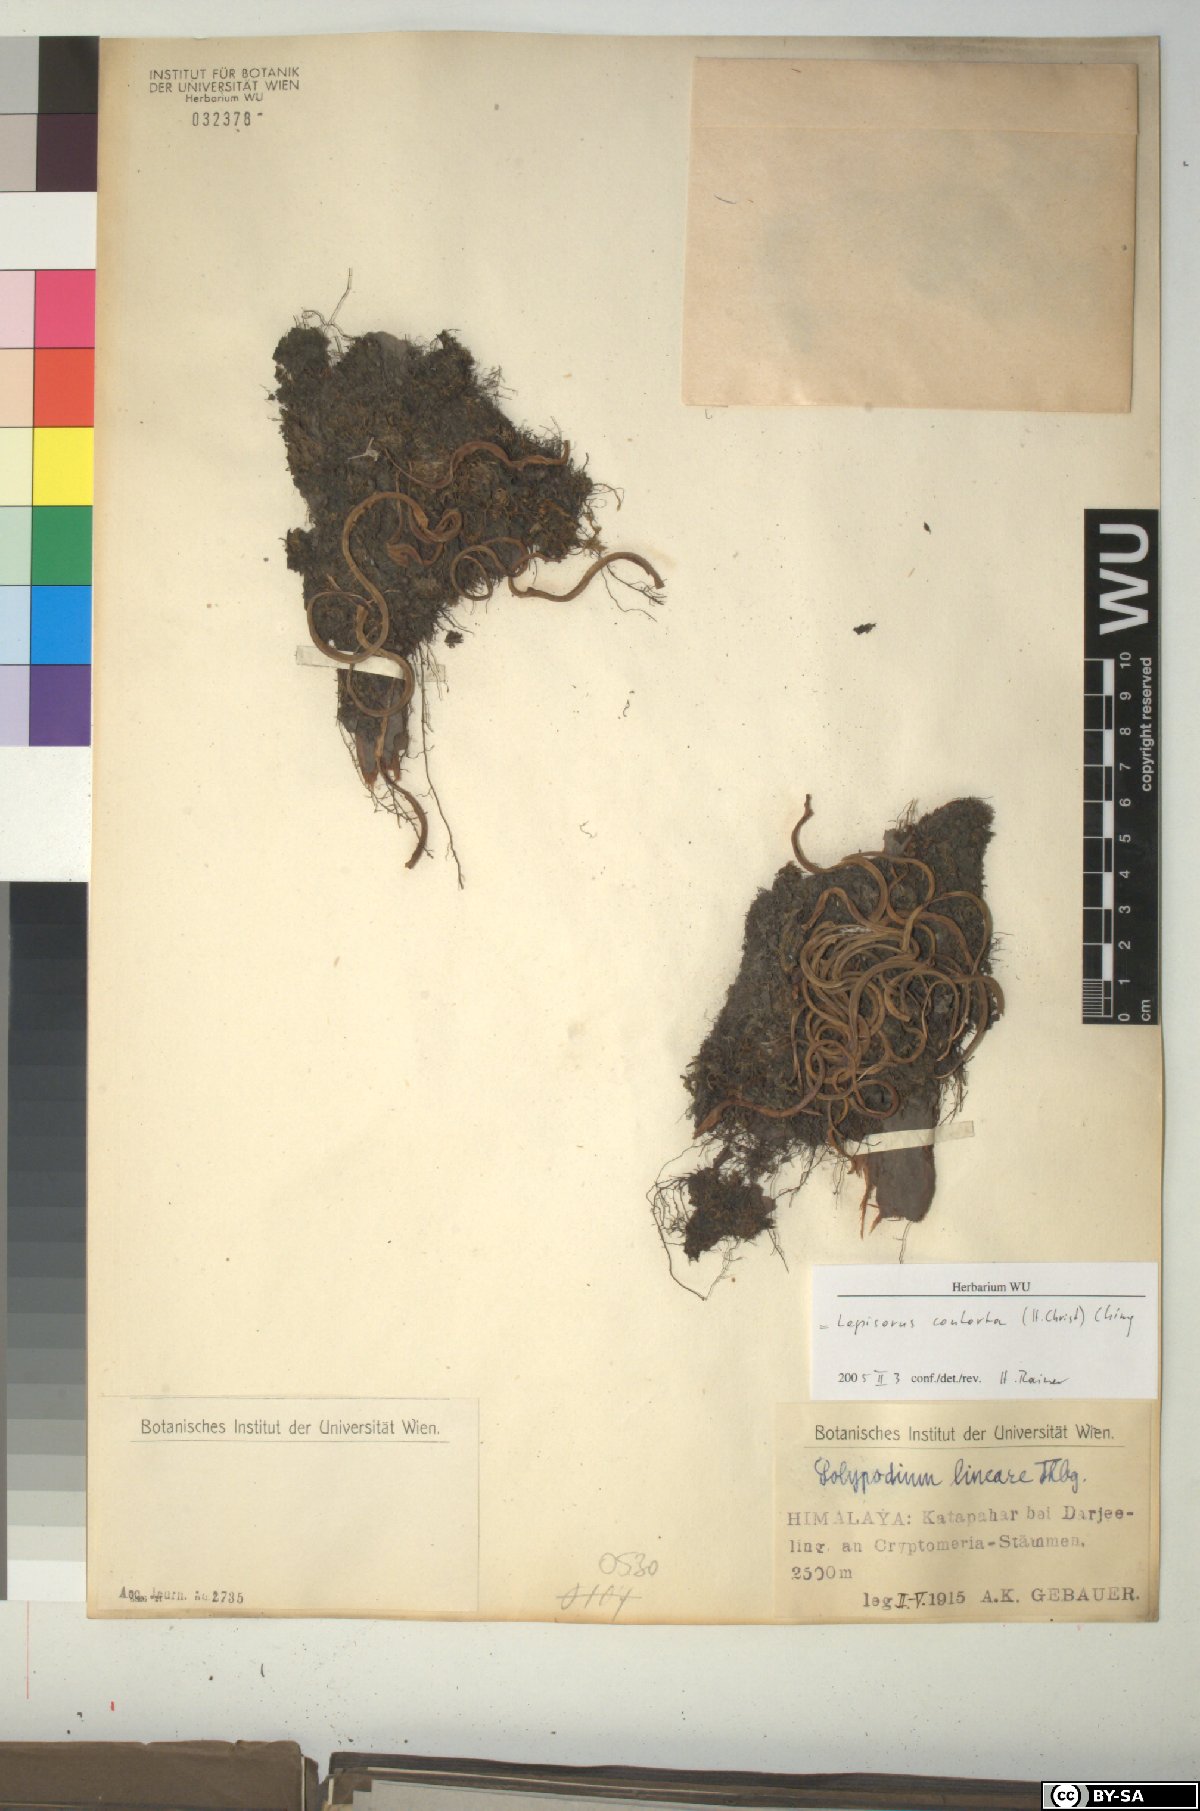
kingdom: Plantae
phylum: Tracheophyta
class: Polypodiopsida
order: Polypodiales
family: Polypodiaceae
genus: Lepisorus
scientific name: Lepisorus contortus
